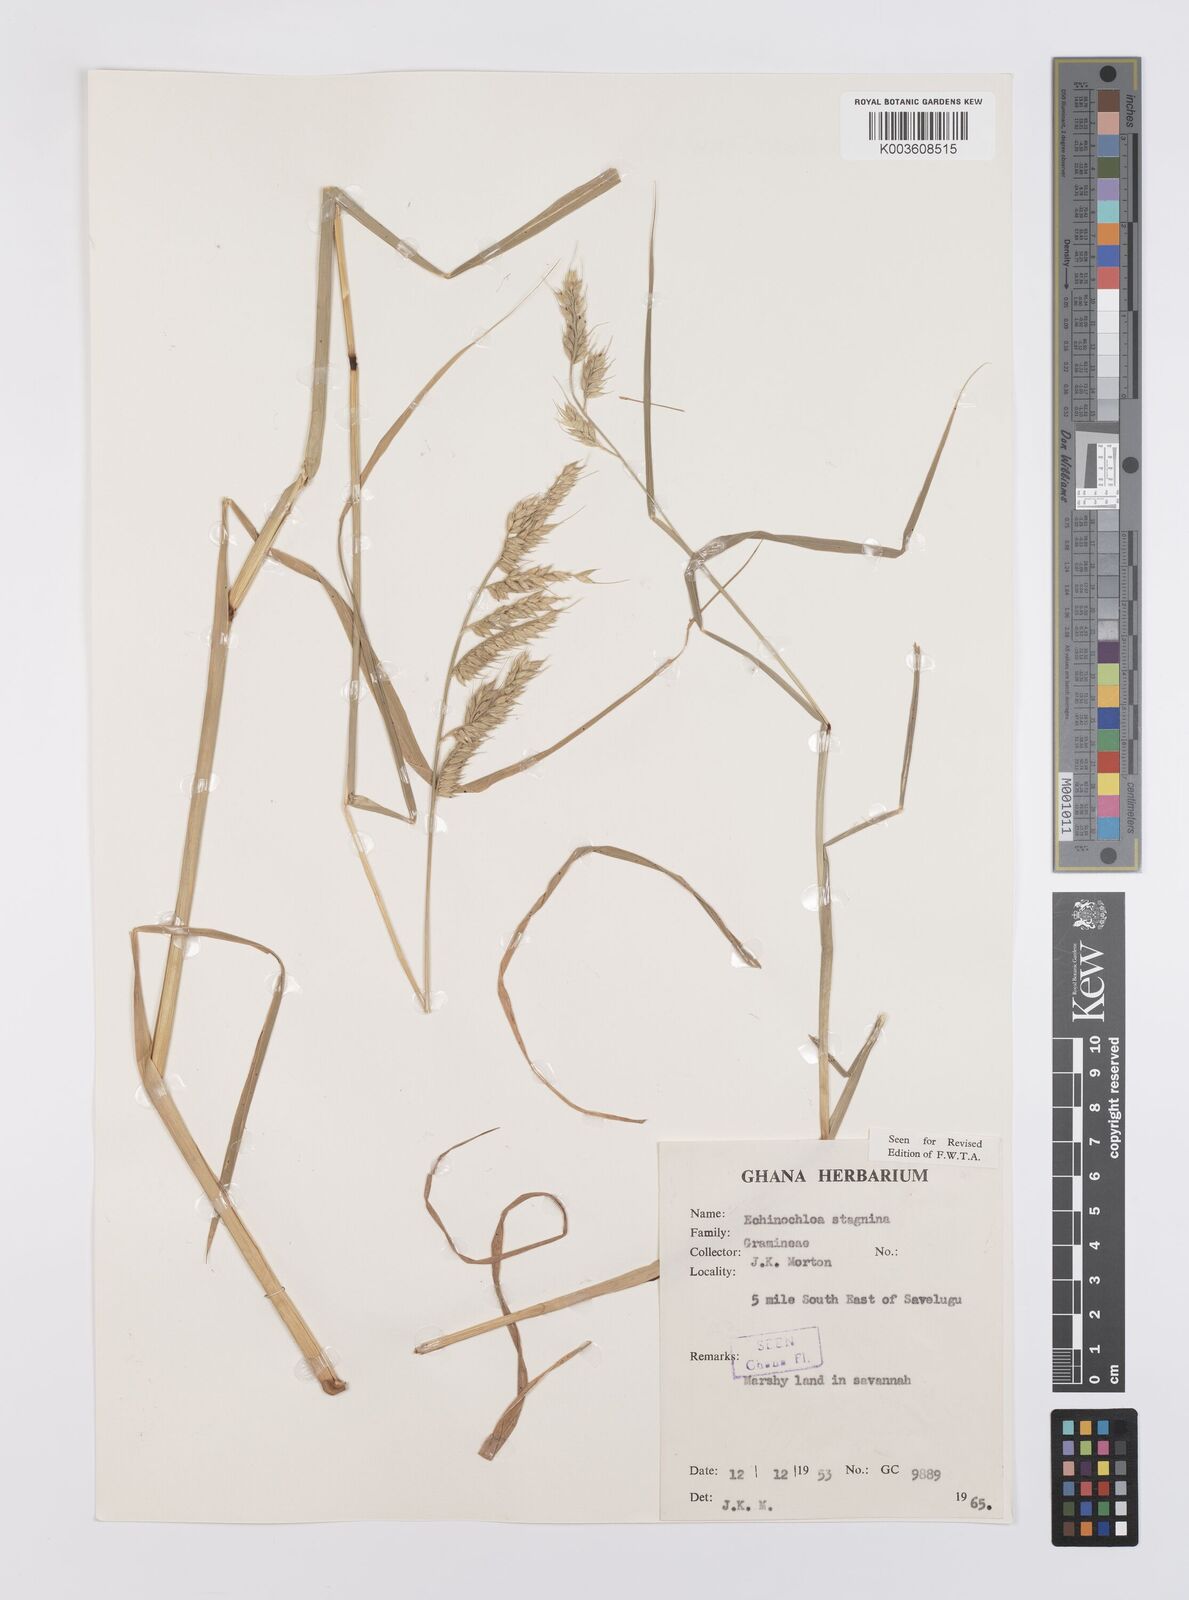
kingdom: Plantae
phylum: Tracheophyta
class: Liliopsida
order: Poales
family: Poaceae
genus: Echinochloa
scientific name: Echinochloa stagnina
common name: Burgu grass
